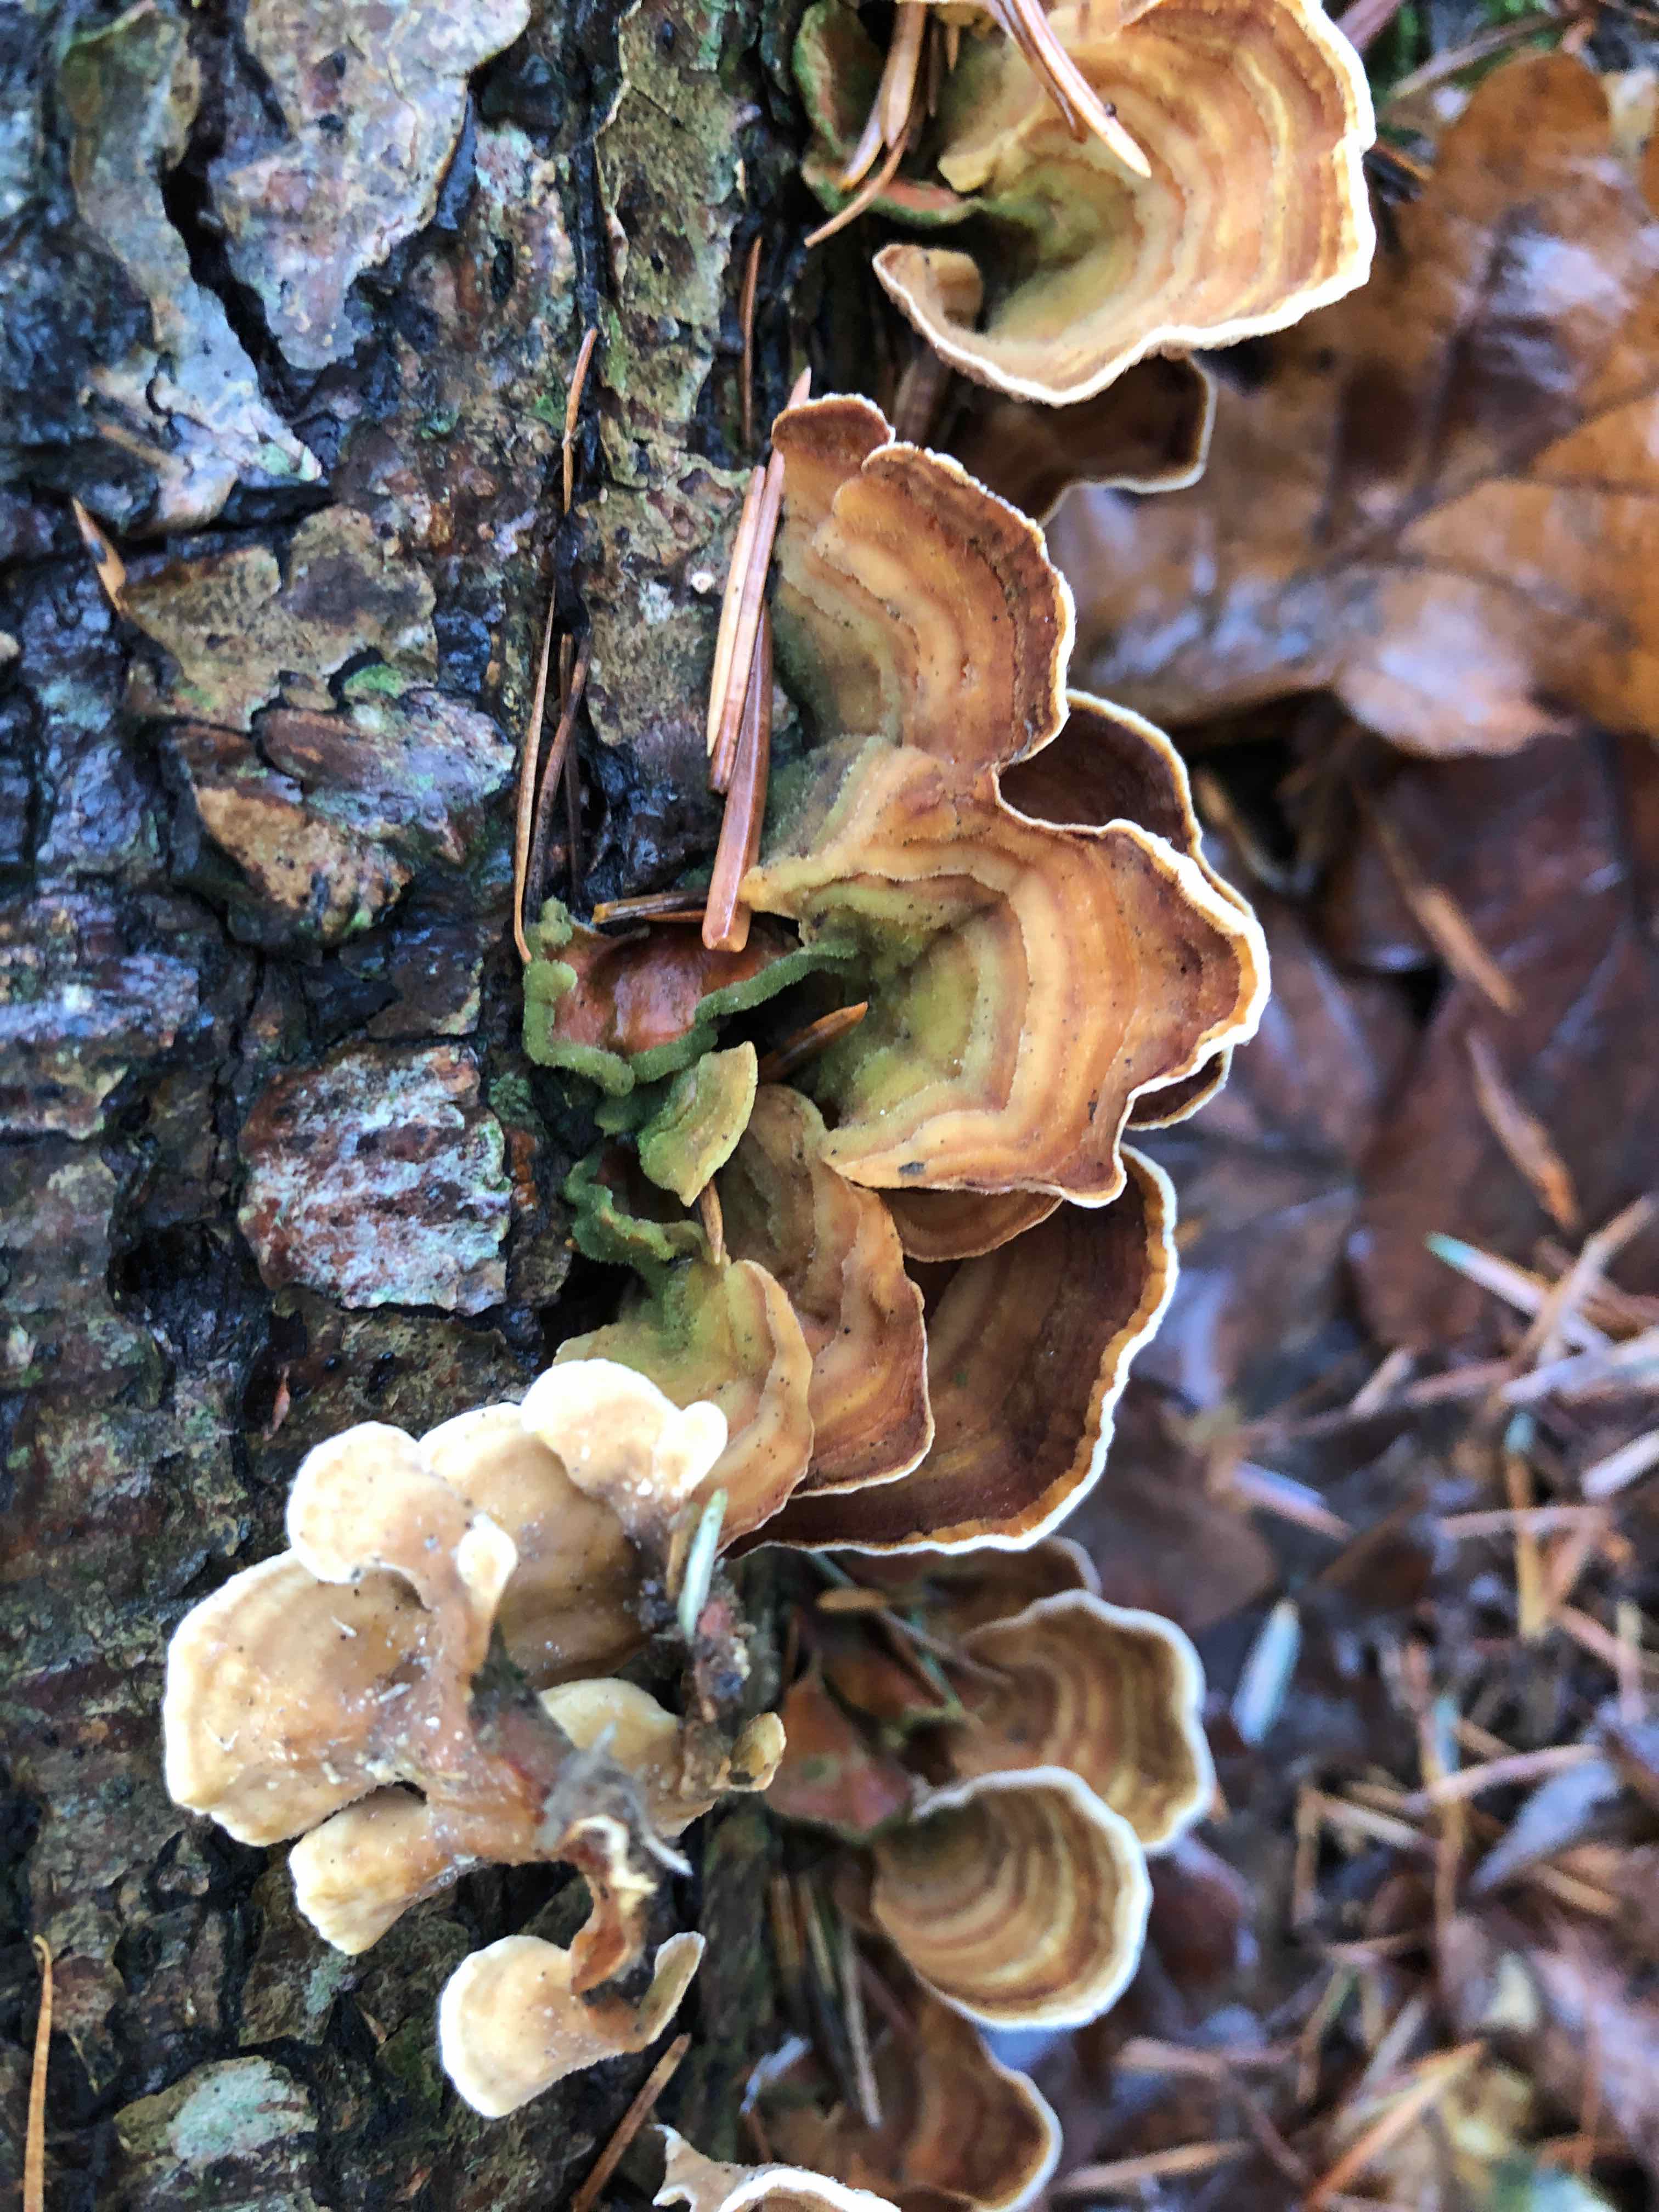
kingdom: Fungi
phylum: Basidiomycota
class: Agaricomycetes
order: Russulales
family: Stereaceae
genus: Stereum
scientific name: Stereum subtomentosum
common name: smuk lædersvamp
